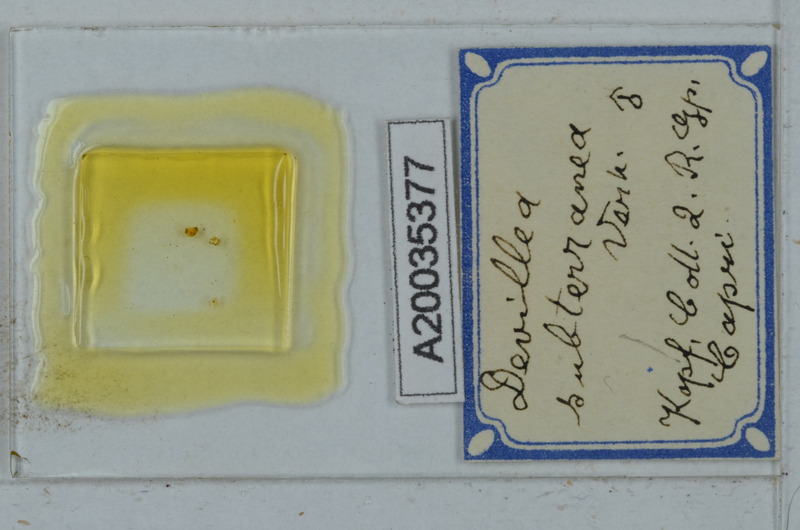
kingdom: Animalia
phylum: Arthropoda
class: Diplopoda
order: Polydesmida
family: Xystodesmidae
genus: Devillea
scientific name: Devillea subterranea
